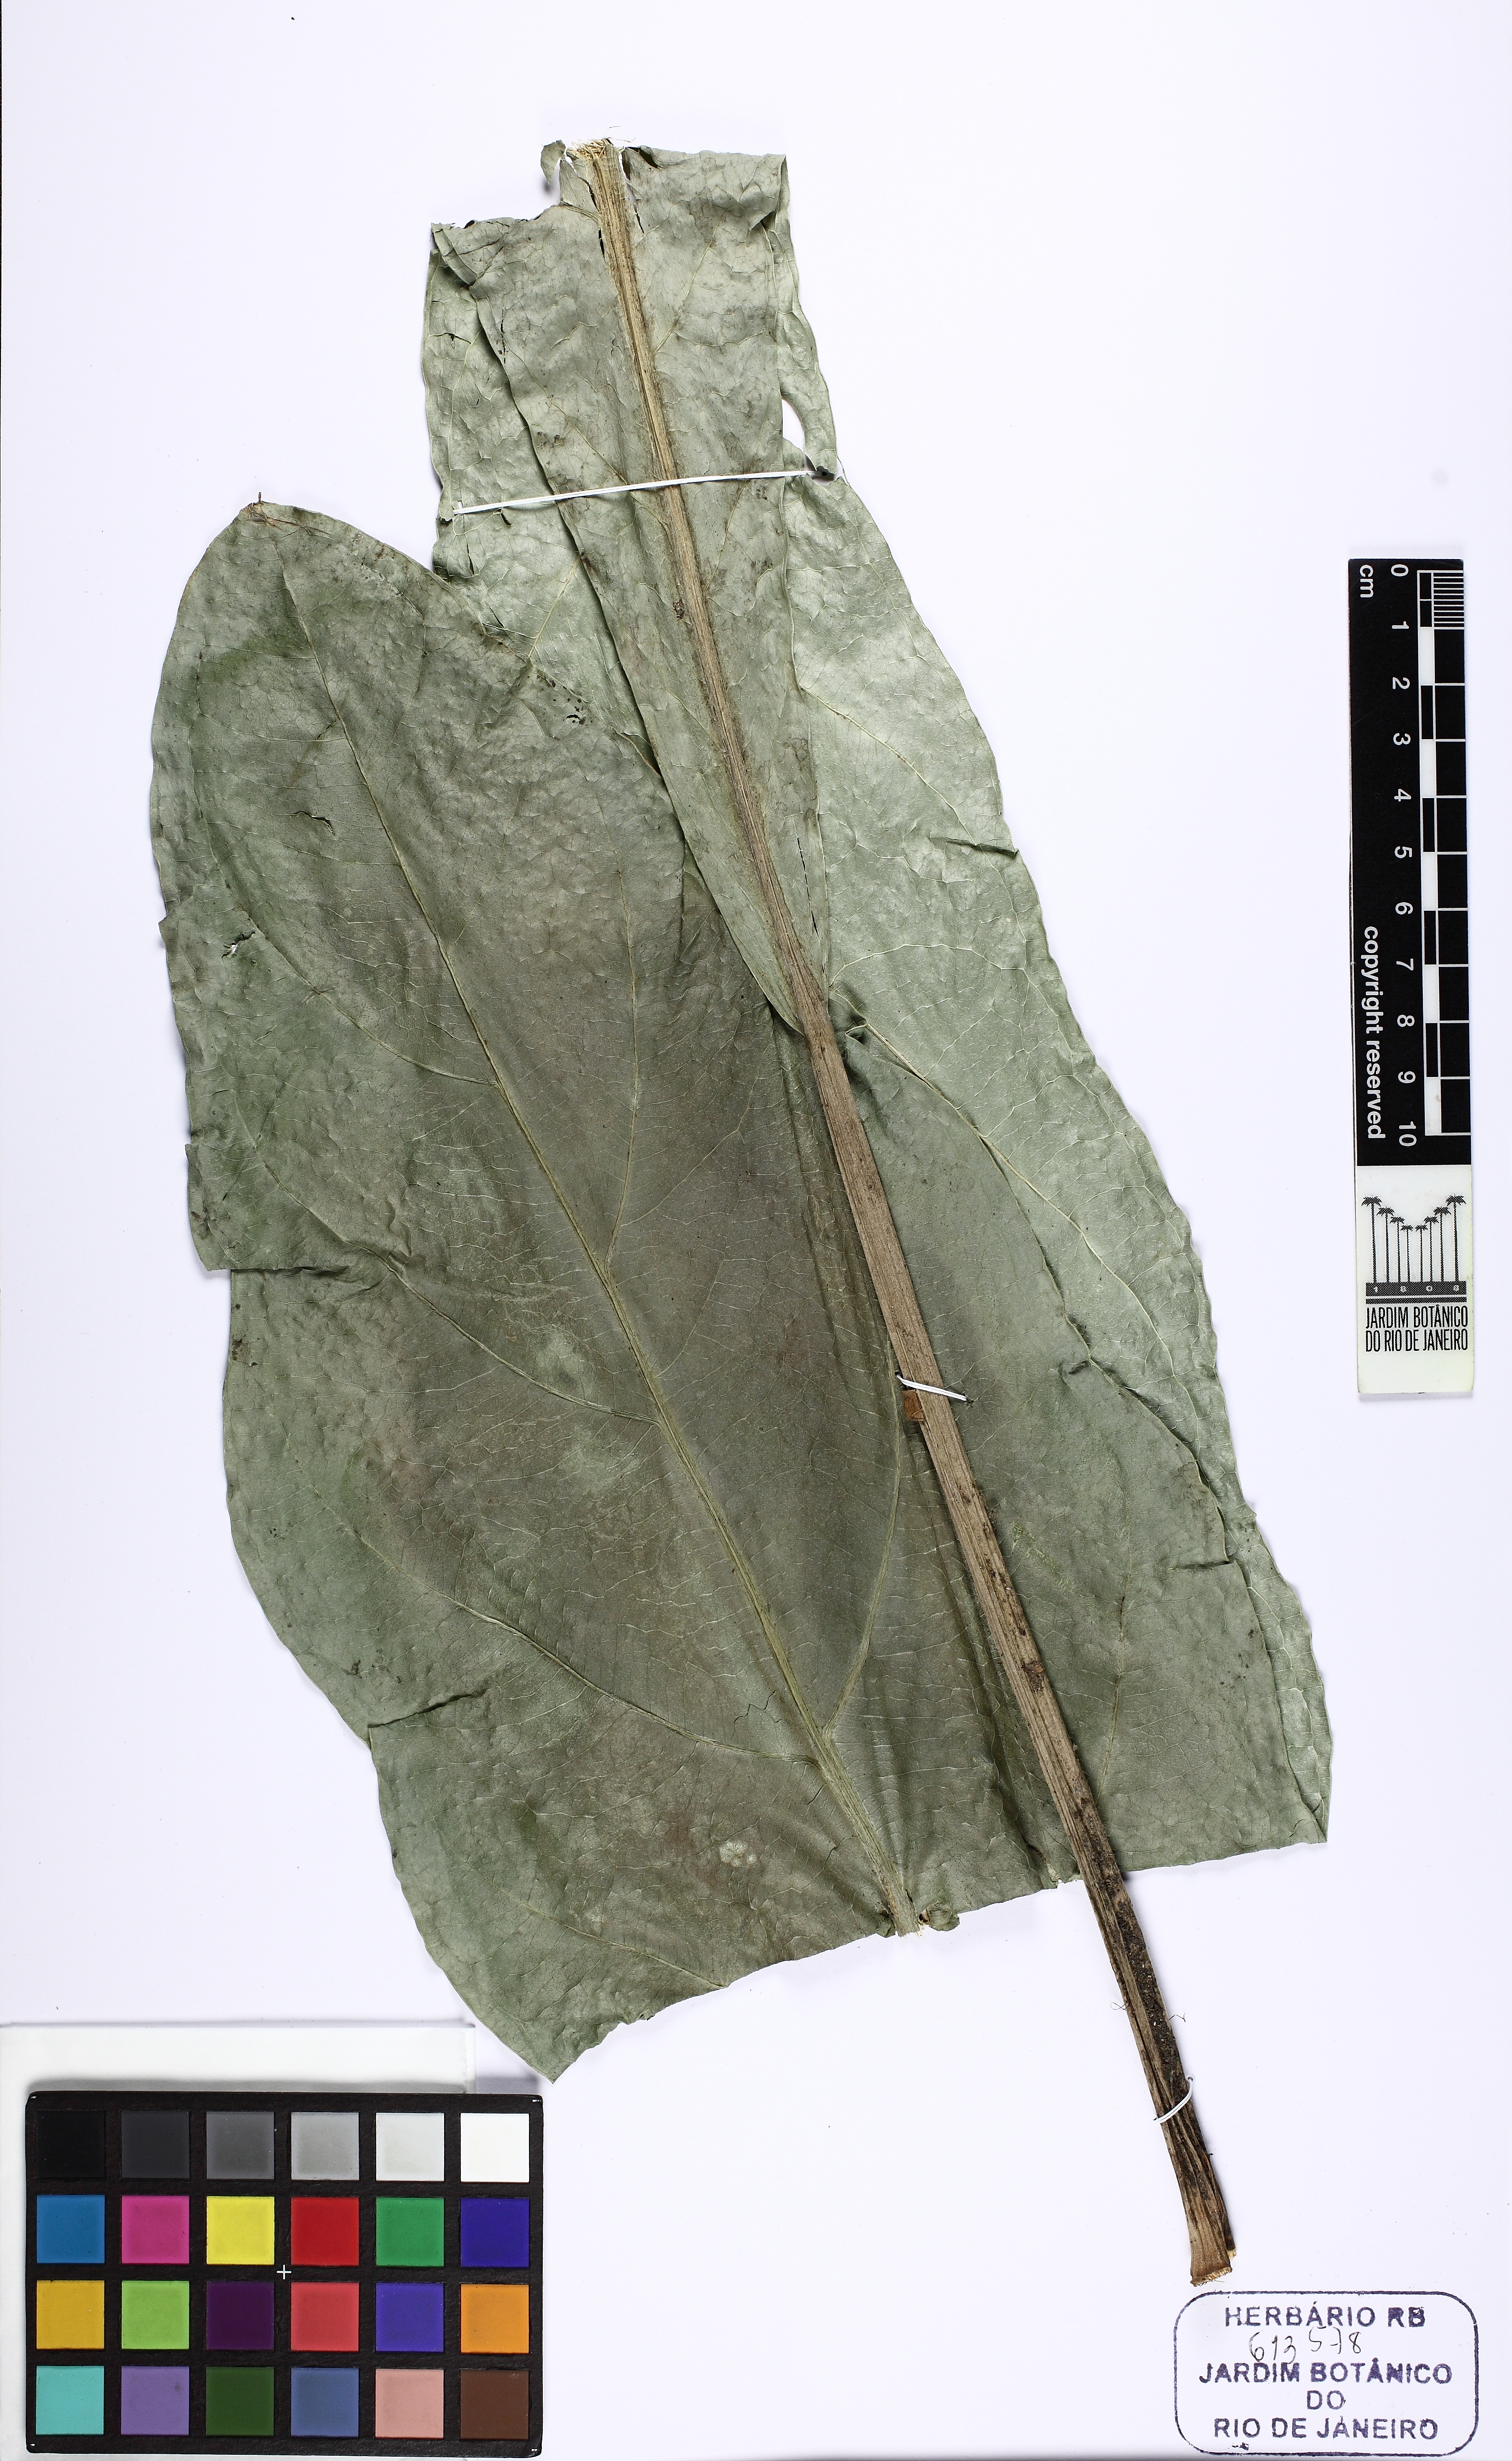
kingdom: Plantae
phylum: Tracheophyta
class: Liliopsida
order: Alismatales
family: Araceae
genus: Anthurium
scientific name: Anthurium affine
